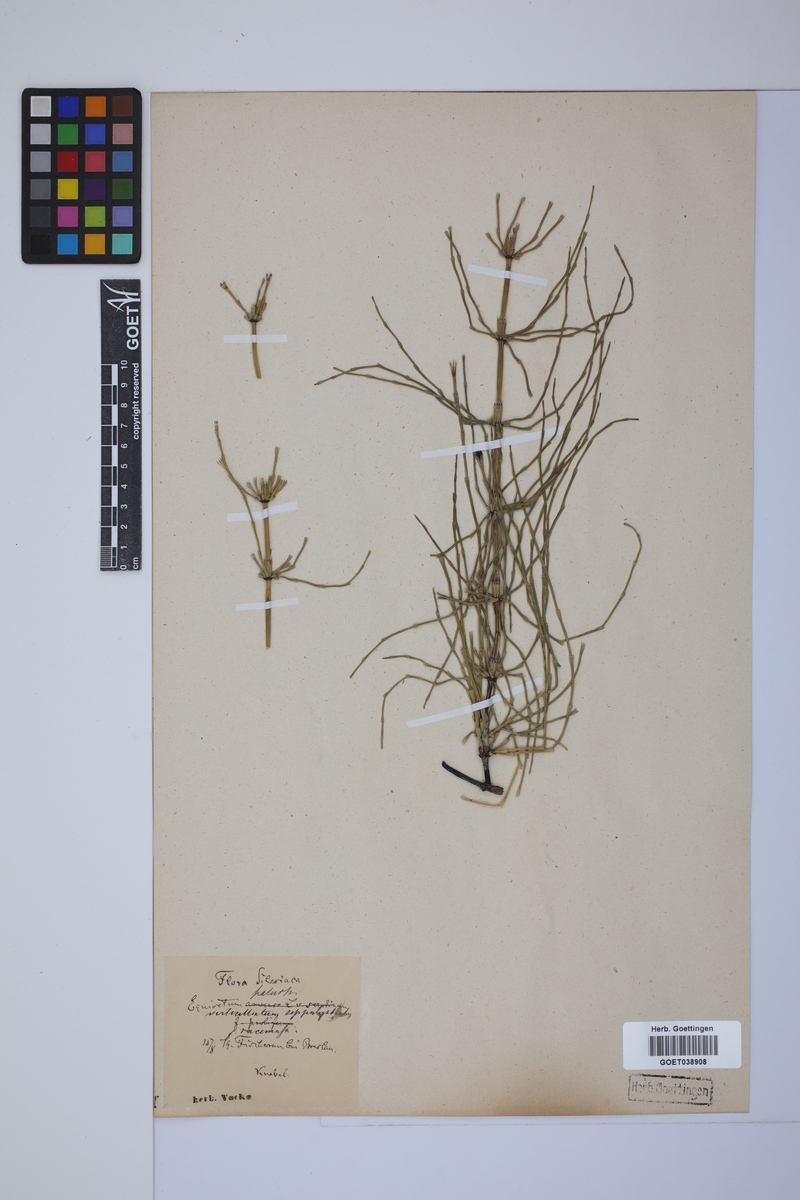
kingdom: Plantae
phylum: Tracheophyta
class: Polypodiopsida
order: Equisetales
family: Equisetaceae
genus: Equisetum
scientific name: Equisetum palustre
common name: Marsh horsetail
